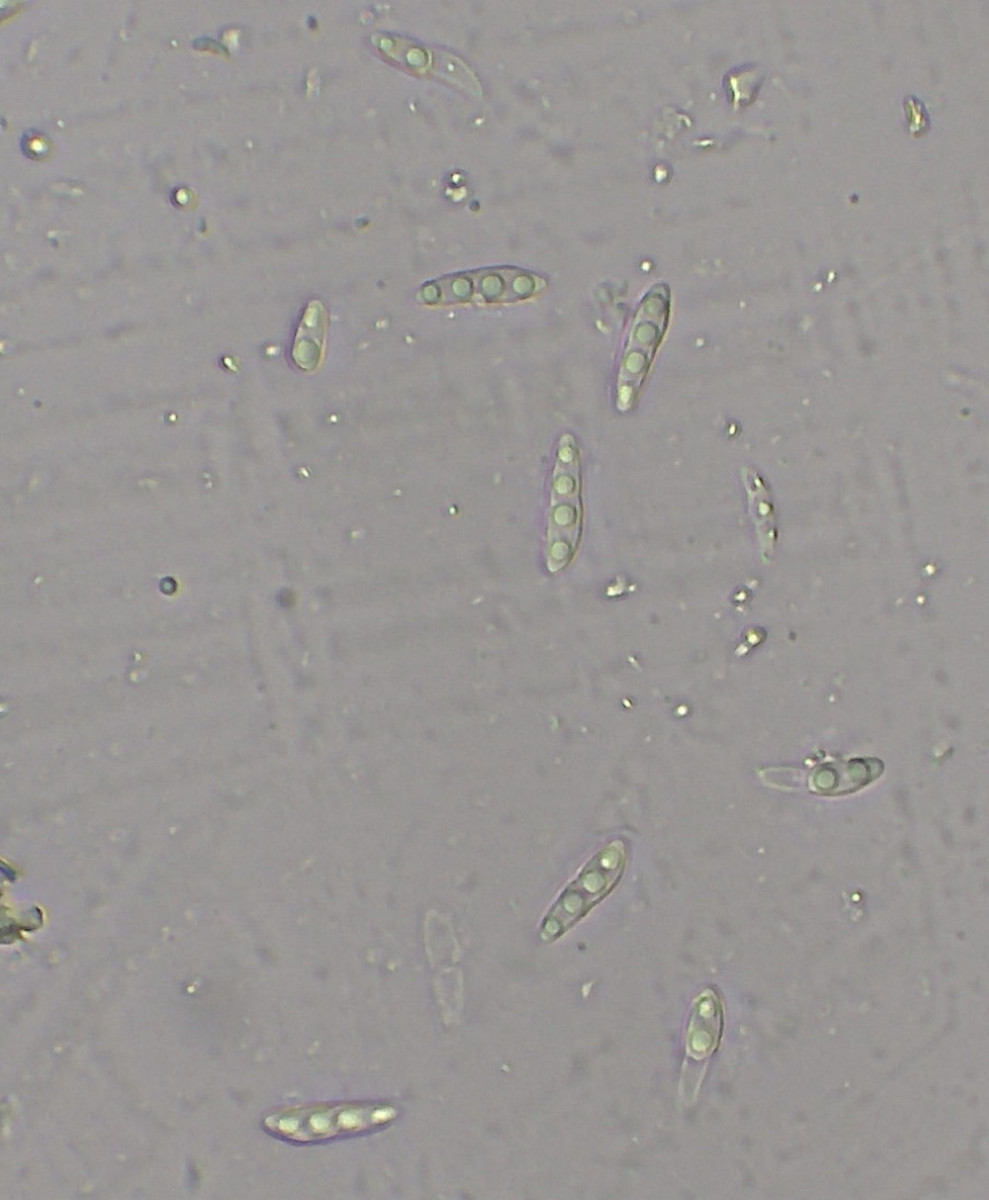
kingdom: Fungi
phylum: Ascomycota
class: Dothideomycetes
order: Asterinales
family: Aulographaceae
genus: Aulographum
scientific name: Aulographum hederae
